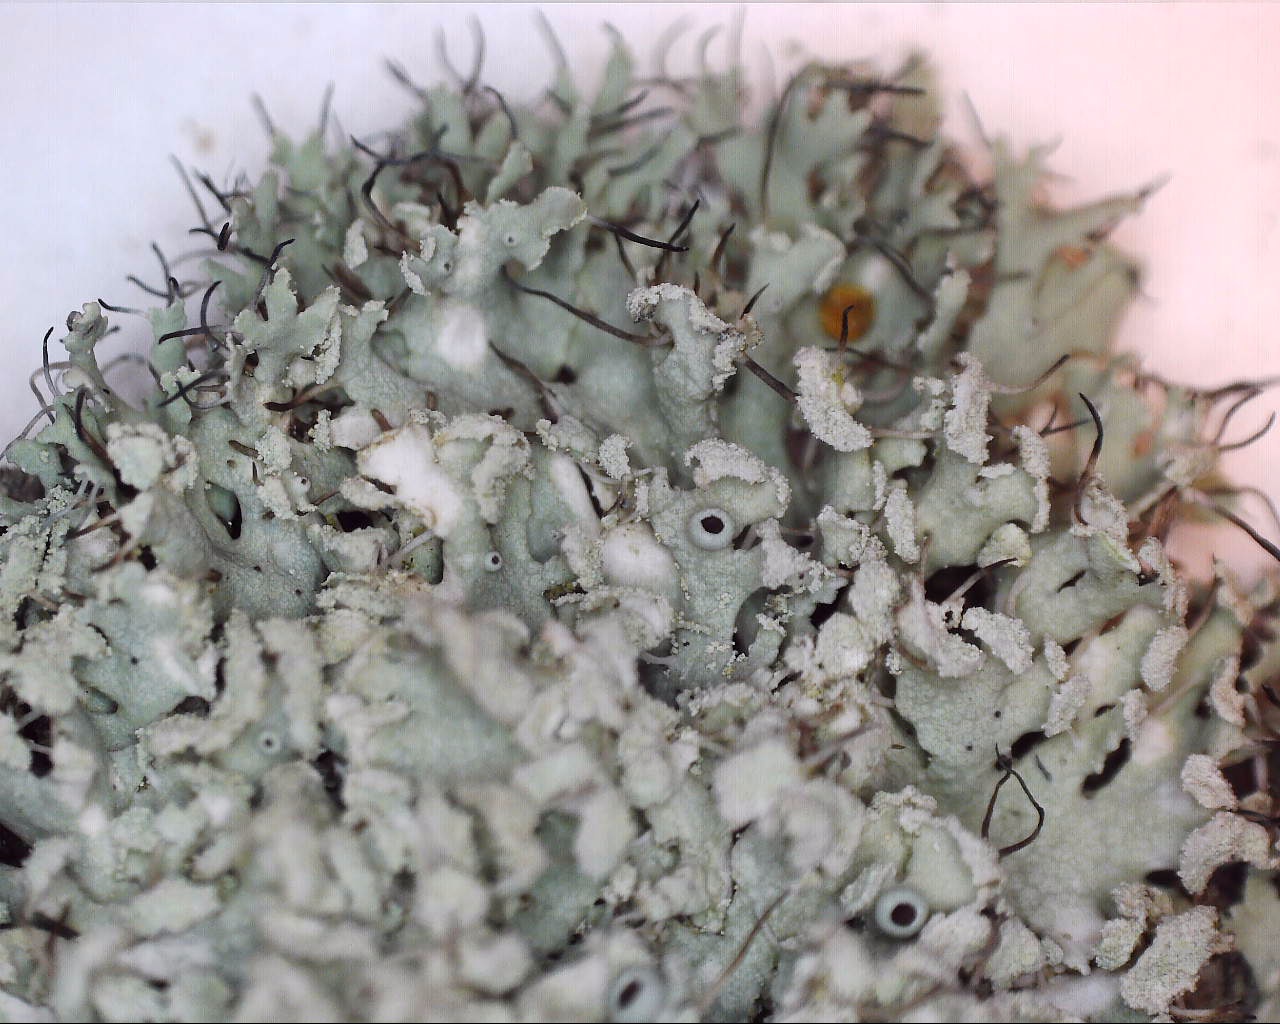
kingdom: Fungi
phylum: Ascomycota
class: Lecanoromycetes
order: Caliciales
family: Physciaceae
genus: Physcia
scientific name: Physcia tenella
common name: spæd rosetlav
